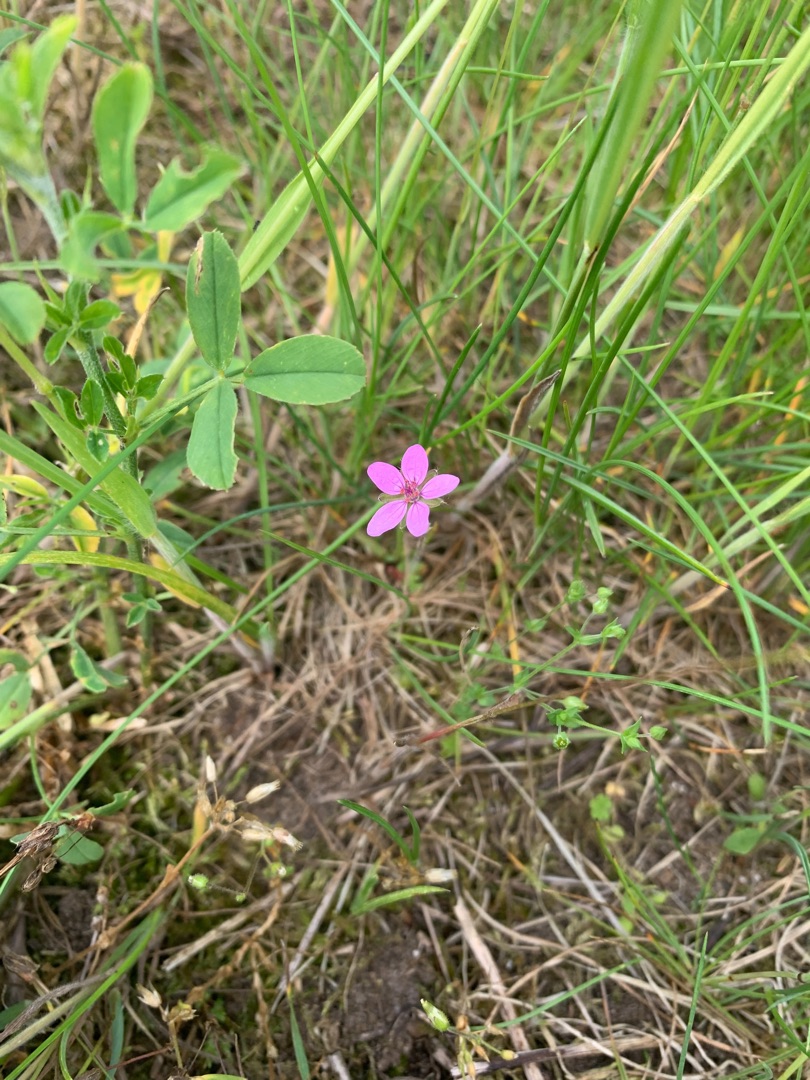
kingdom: Plantae
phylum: Tracheophyta
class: Magnoliopsida
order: Geraniales
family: Geraniaceae
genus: Erodium
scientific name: Erodium cicutarium
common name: Hejrenæb
